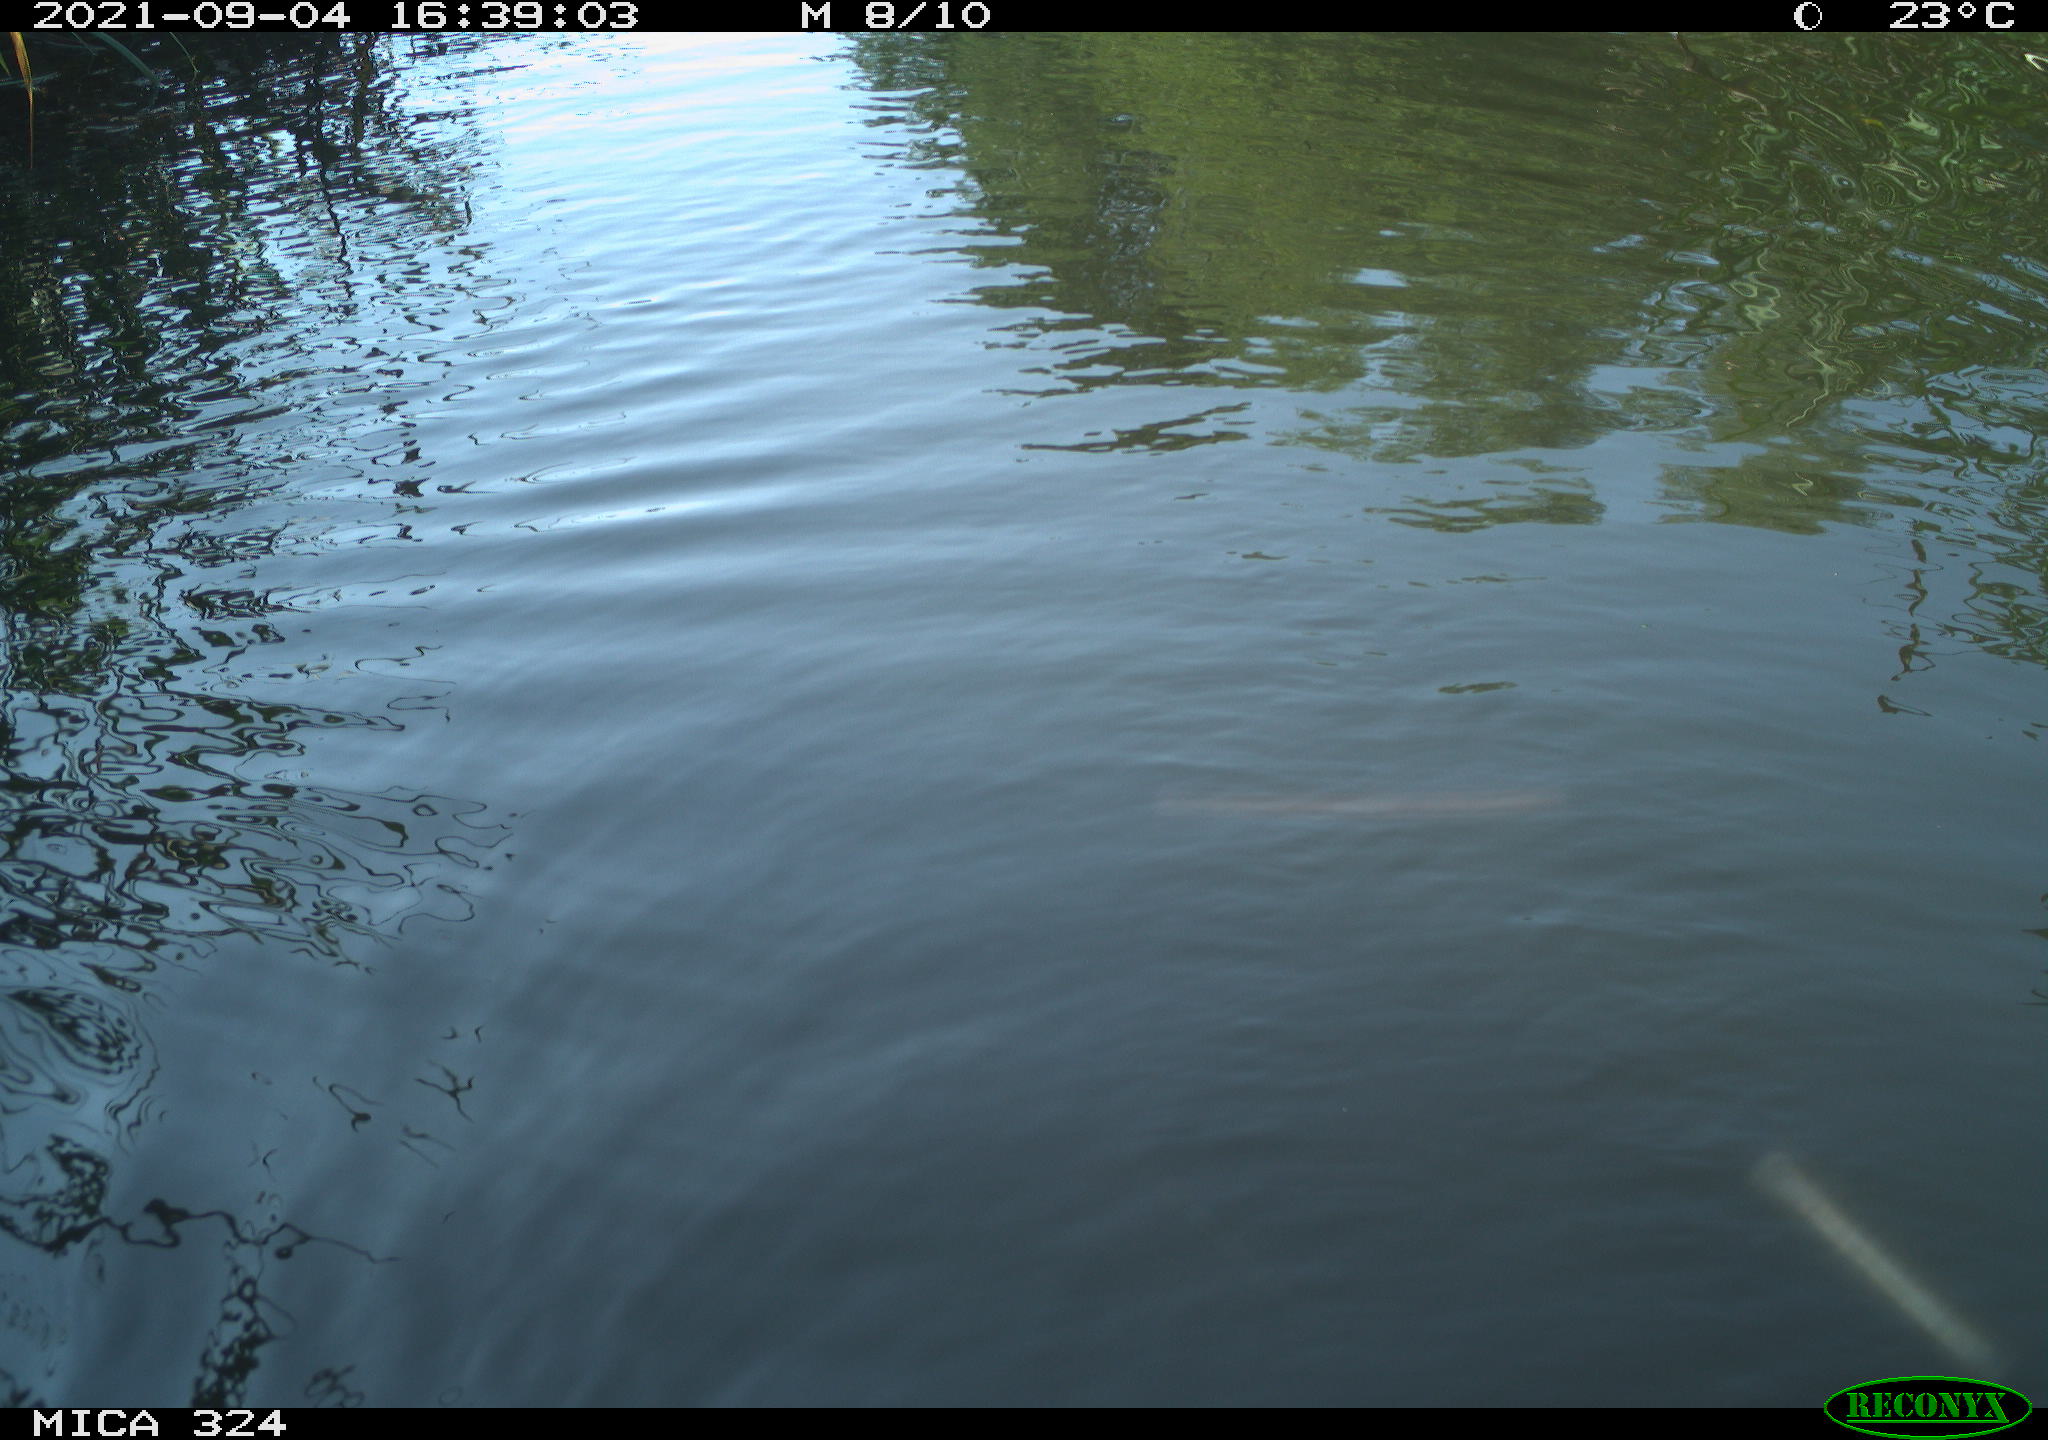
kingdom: Animalia
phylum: Chordata
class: Mammalia
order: Rodentia
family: Cricetidae
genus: Ondatra
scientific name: Ondatra zibethicus
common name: Muskrat
